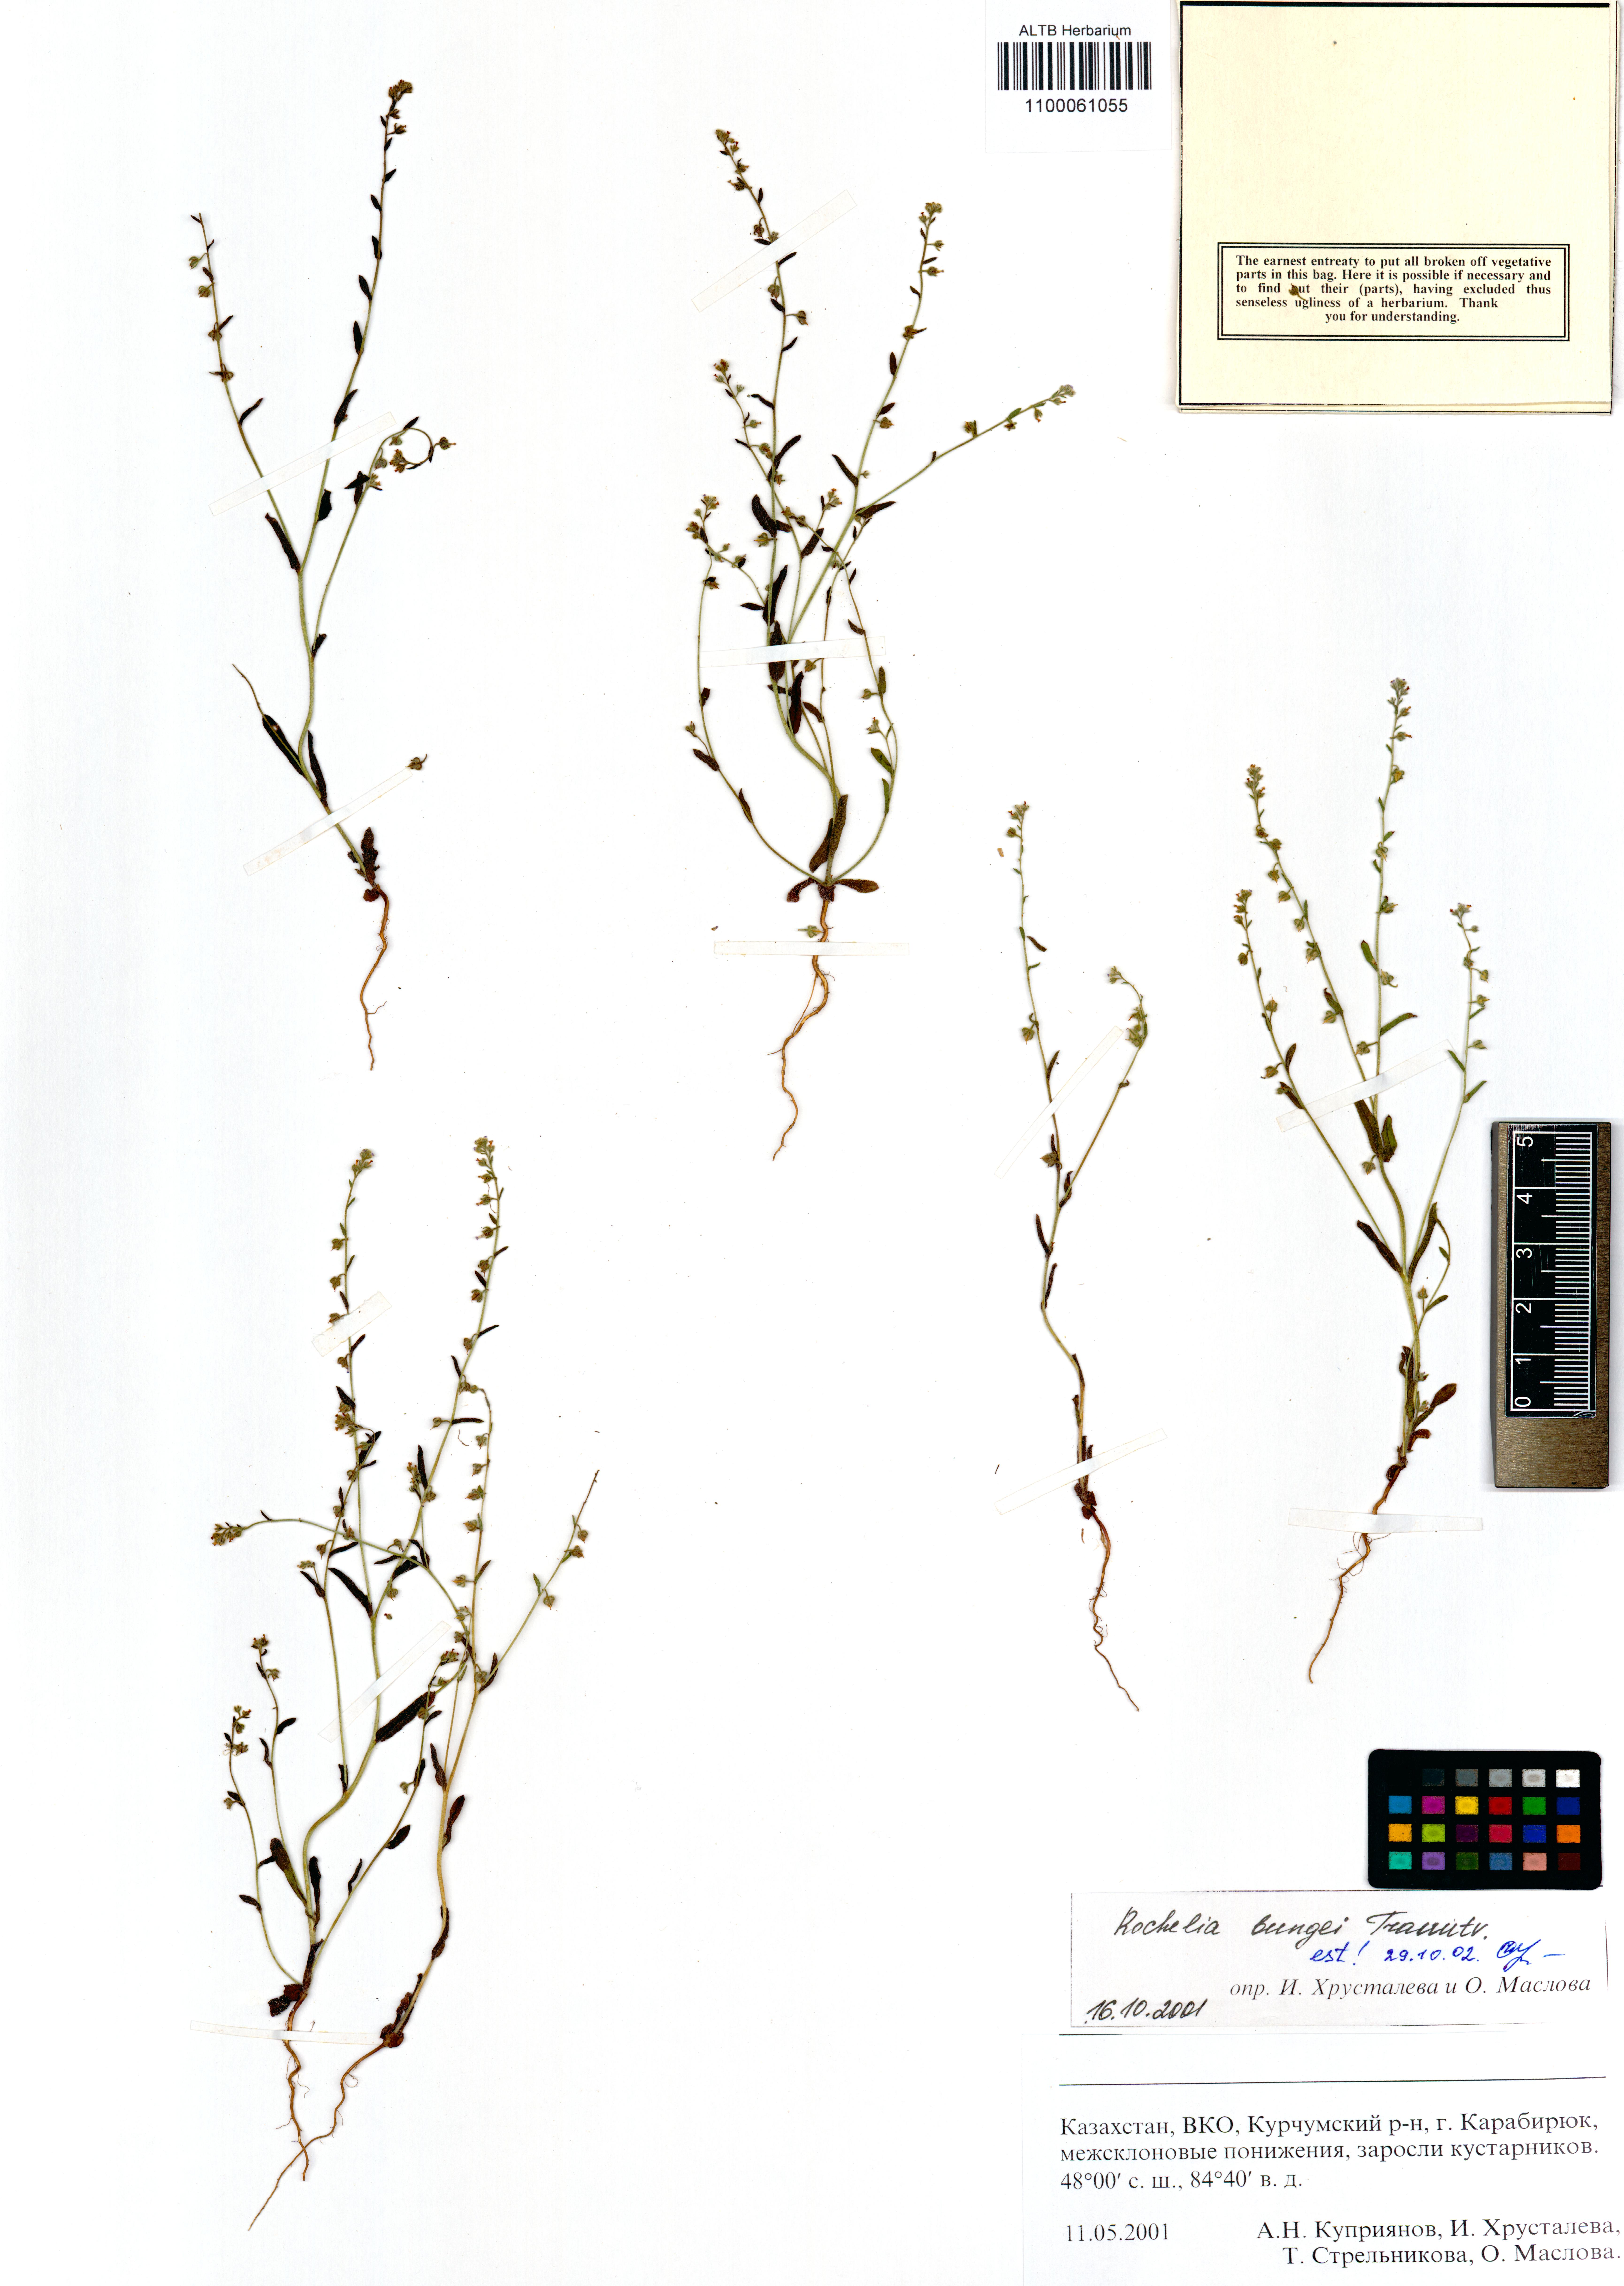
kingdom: Plantae
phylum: Tracheophyta
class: Magnoliopsida
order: Boraginales
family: Boraginaceae
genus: Rochelia
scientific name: Rochelia bungei
